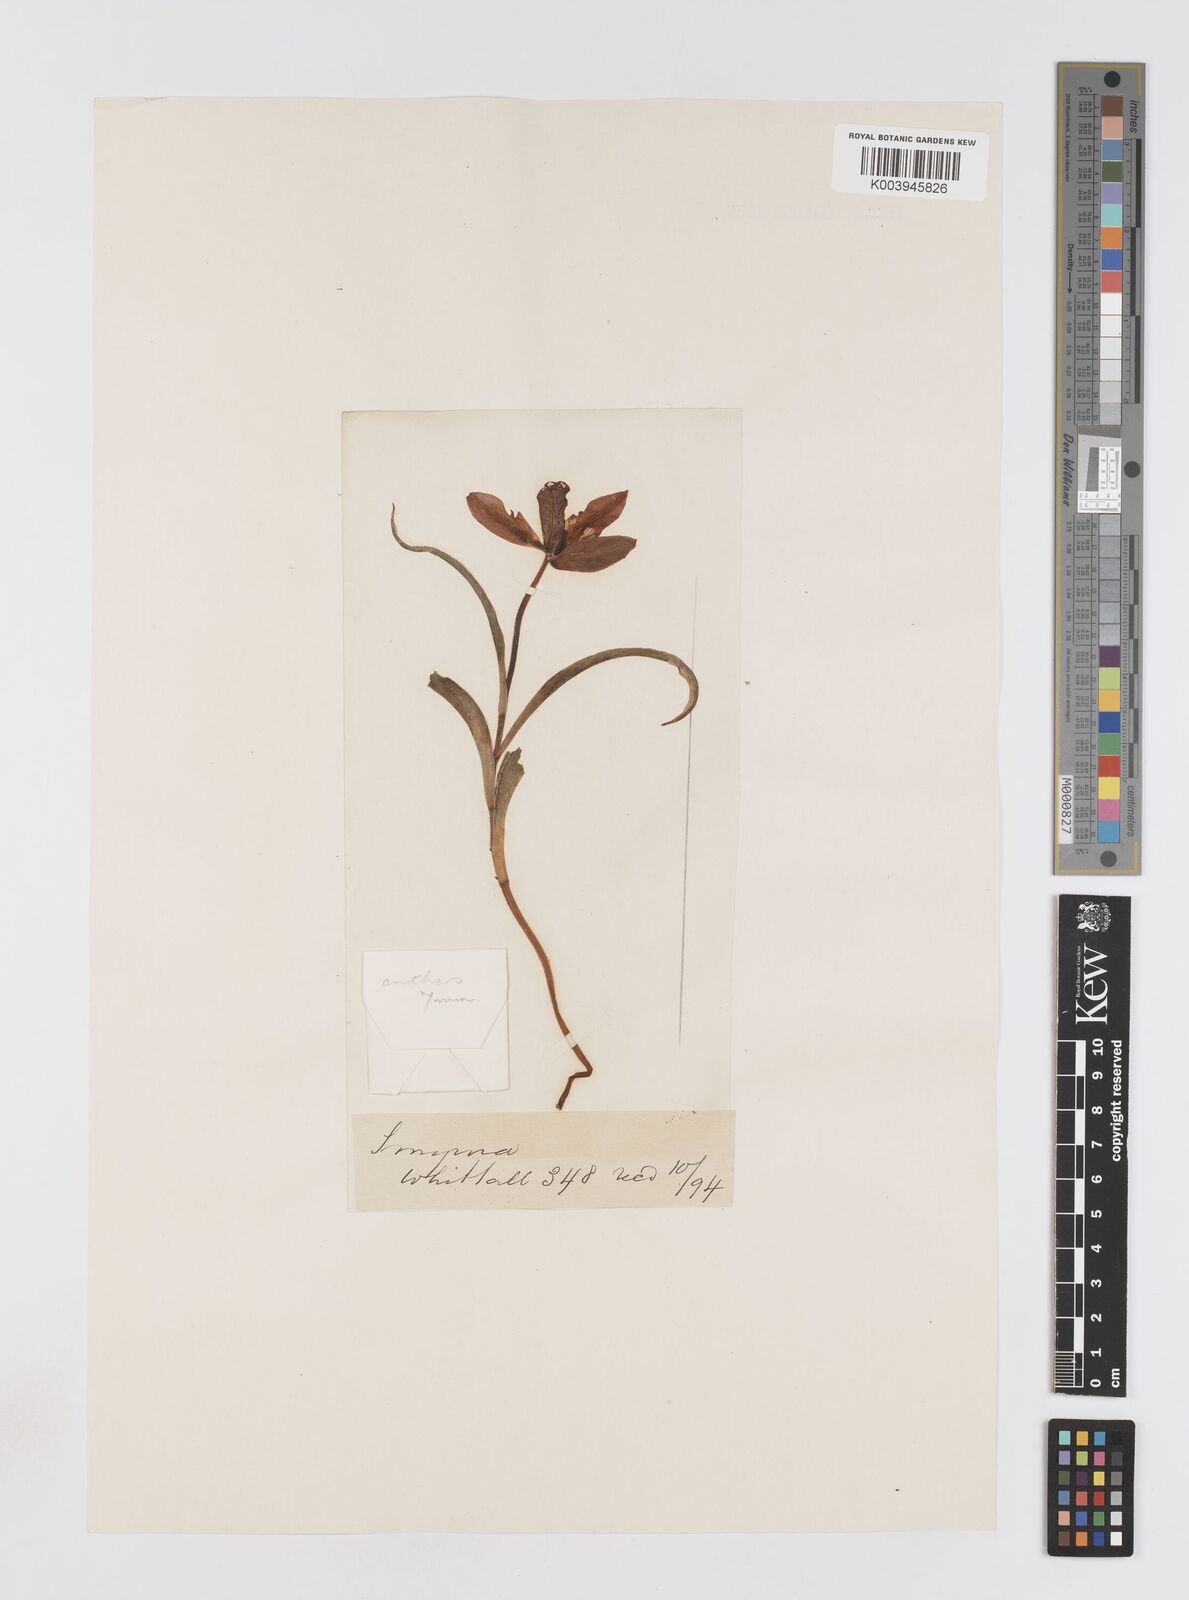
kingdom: Plantae
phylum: Tracheophyta
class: Liliopsida
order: Liliales
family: Liliaceae
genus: Tulipa
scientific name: Tulipa agenensis
